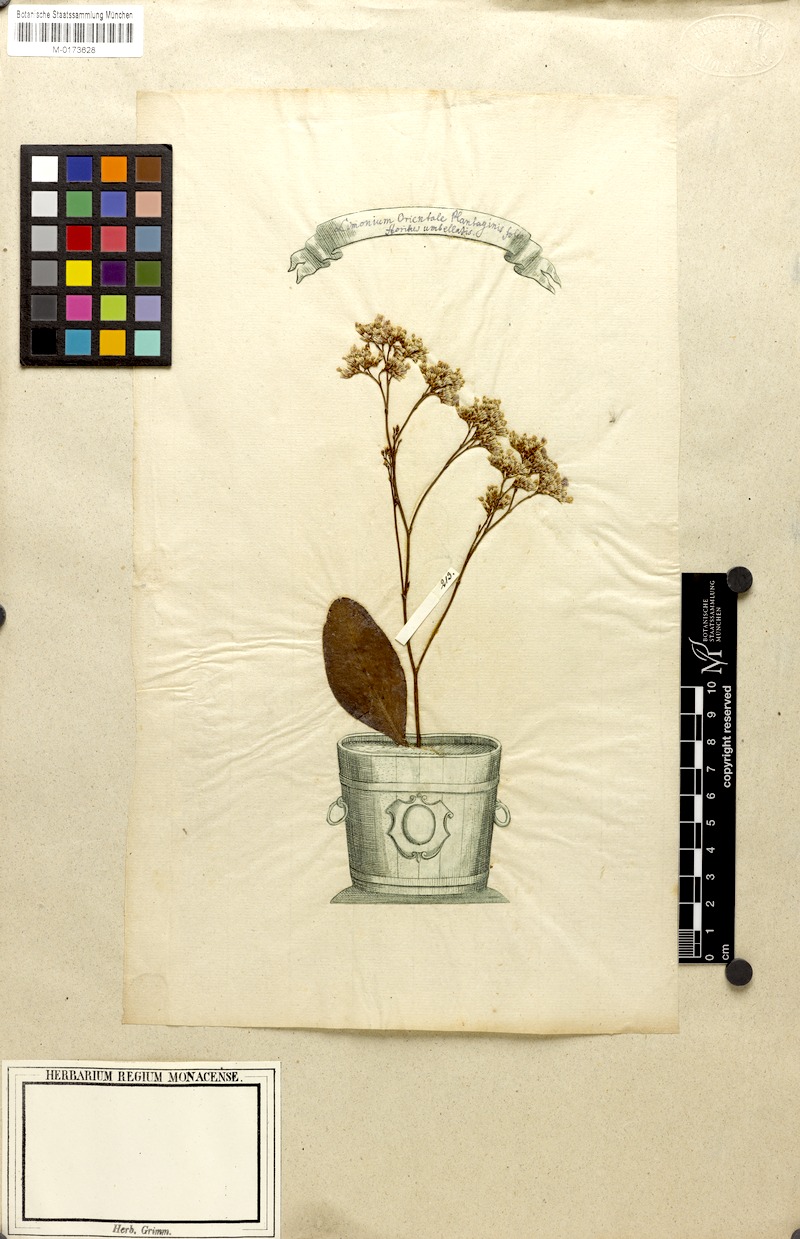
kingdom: Plantae
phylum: Tracheophyta
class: Magnoliopsida
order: Caryophyllales
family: Plumbaginaceae
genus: Limonium
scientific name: Limonium vulgare
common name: Common sea-lavender
